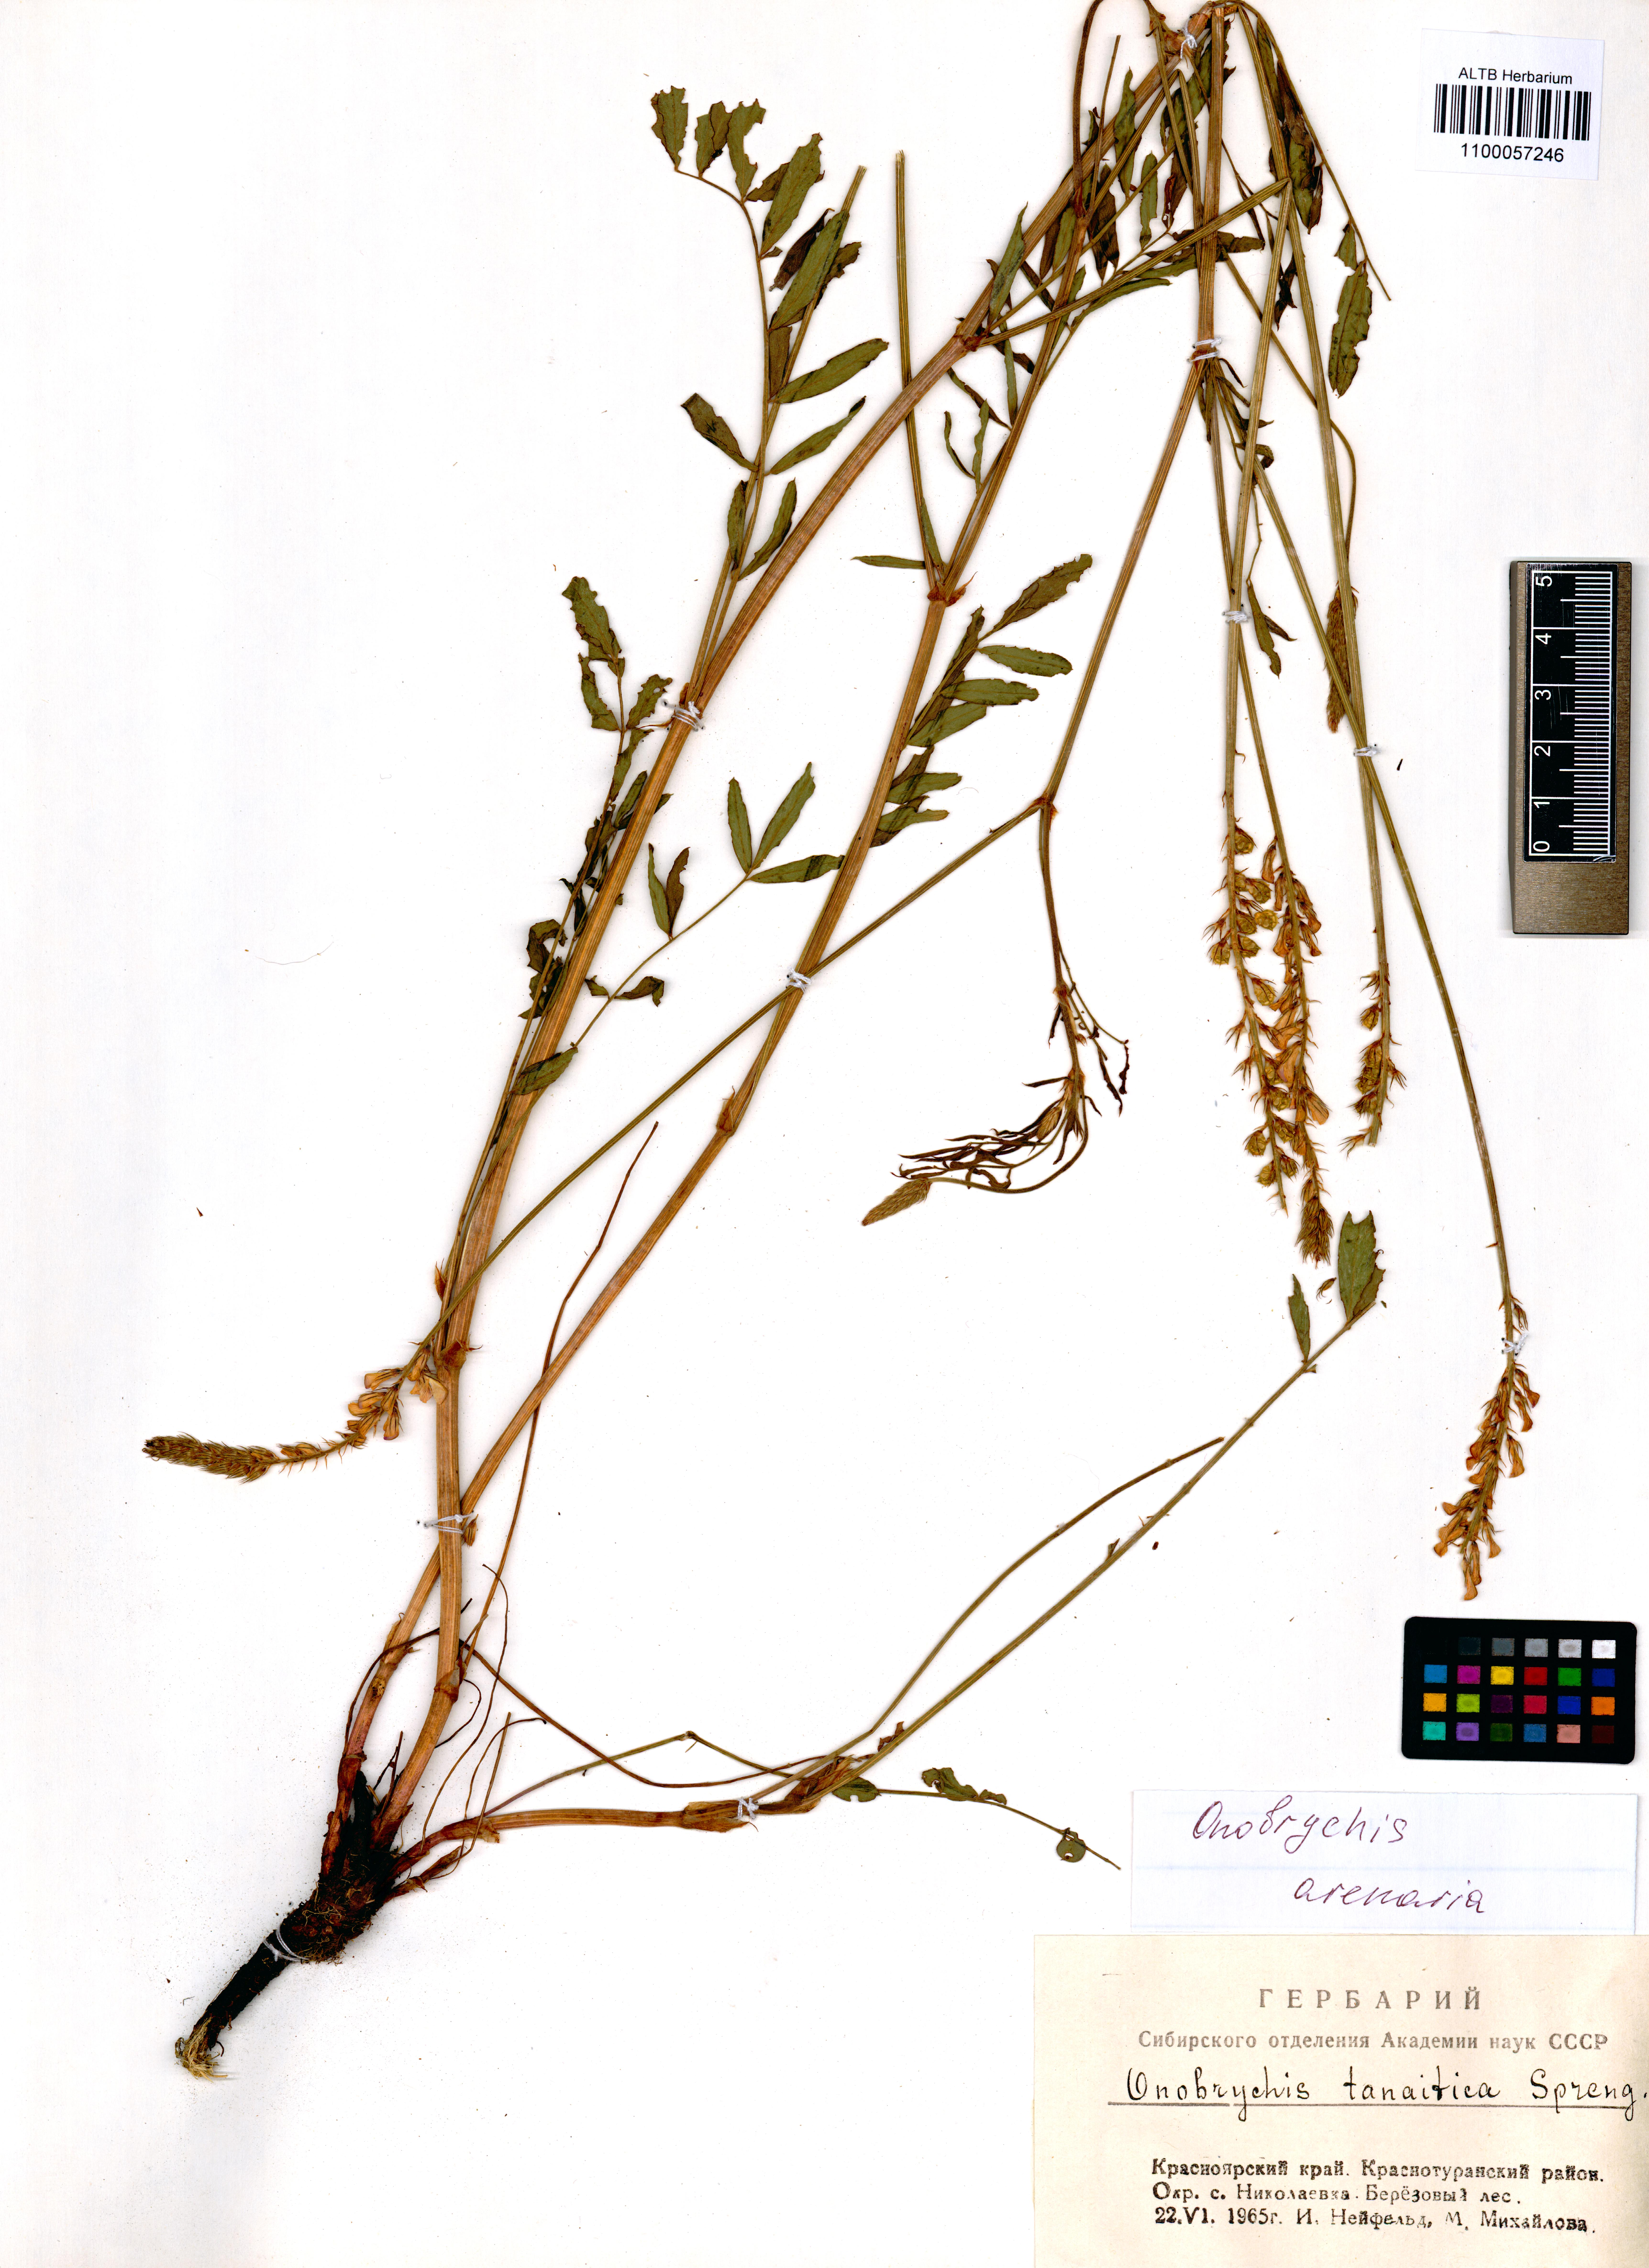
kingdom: Plantae
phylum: Tracheophyta
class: Magnoliopsida
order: Fabales
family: Fabaceae
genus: Onobrychis
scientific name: Onobrychis arenaria
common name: Sand esparcet
